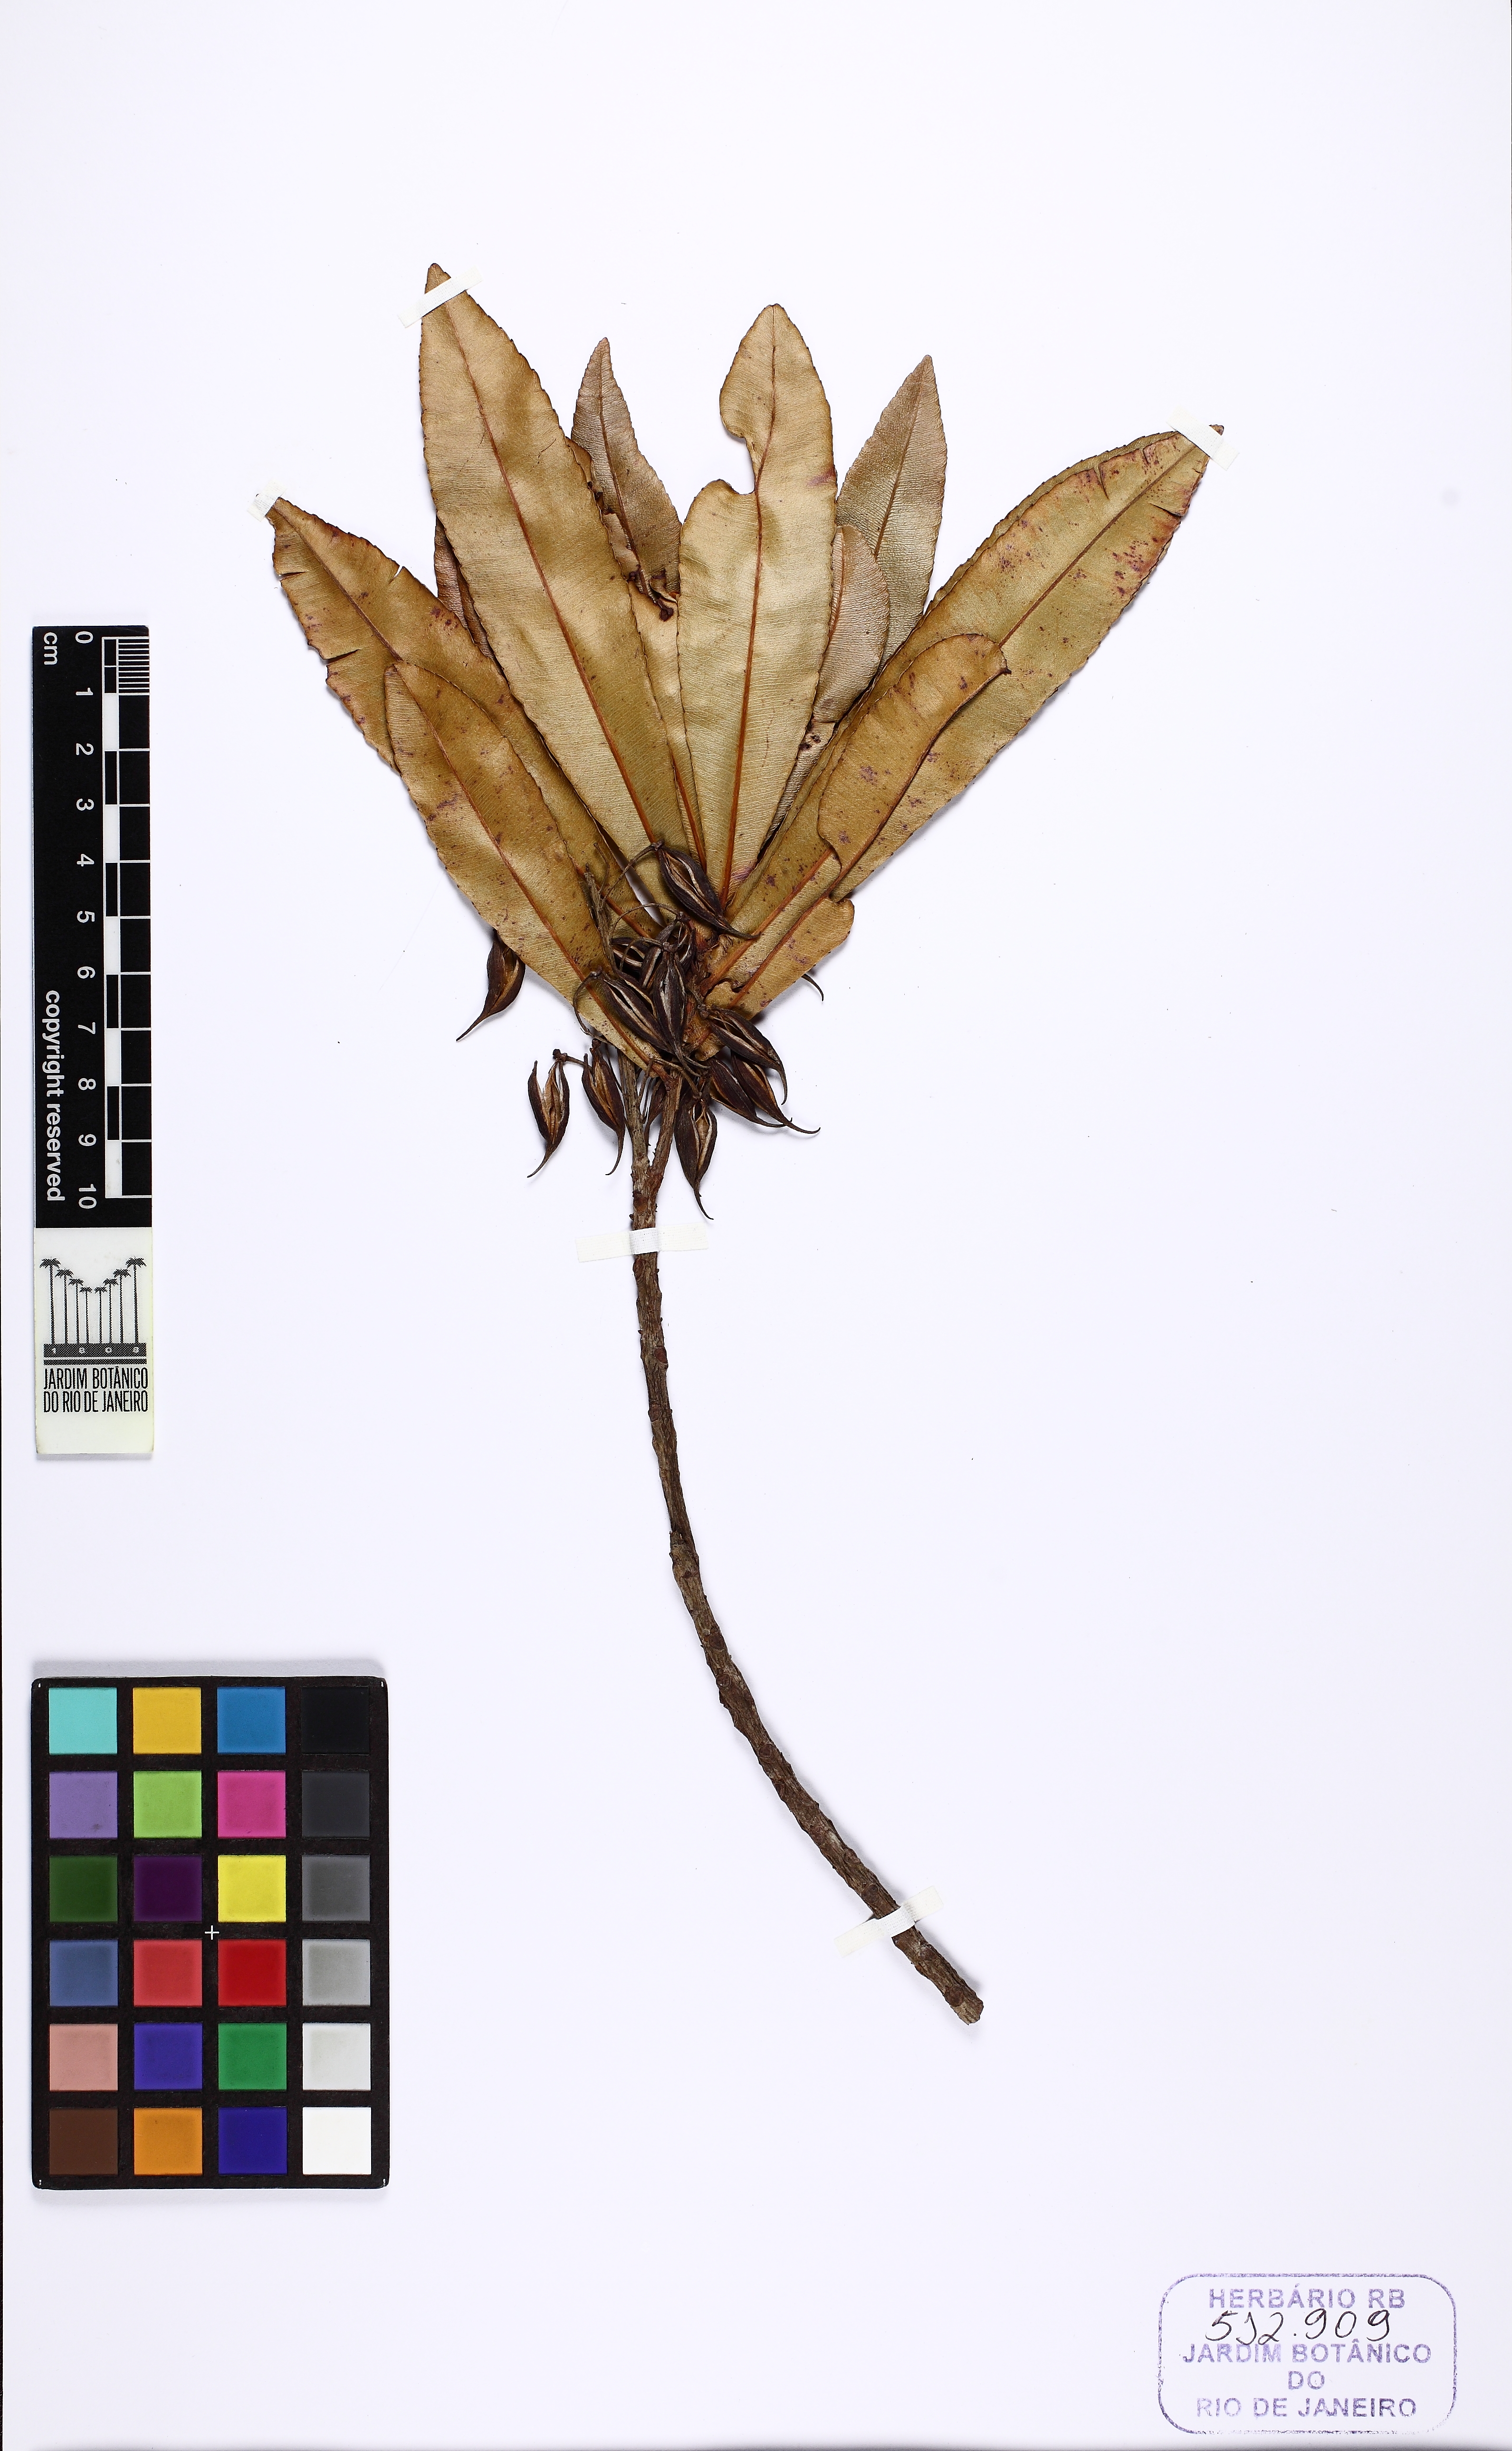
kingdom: Plantae
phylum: Tracheophyta
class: Magnoliopsida
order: Malpighiales
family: Ochnaceae
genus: Philacra
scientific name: Philacra auriculata
